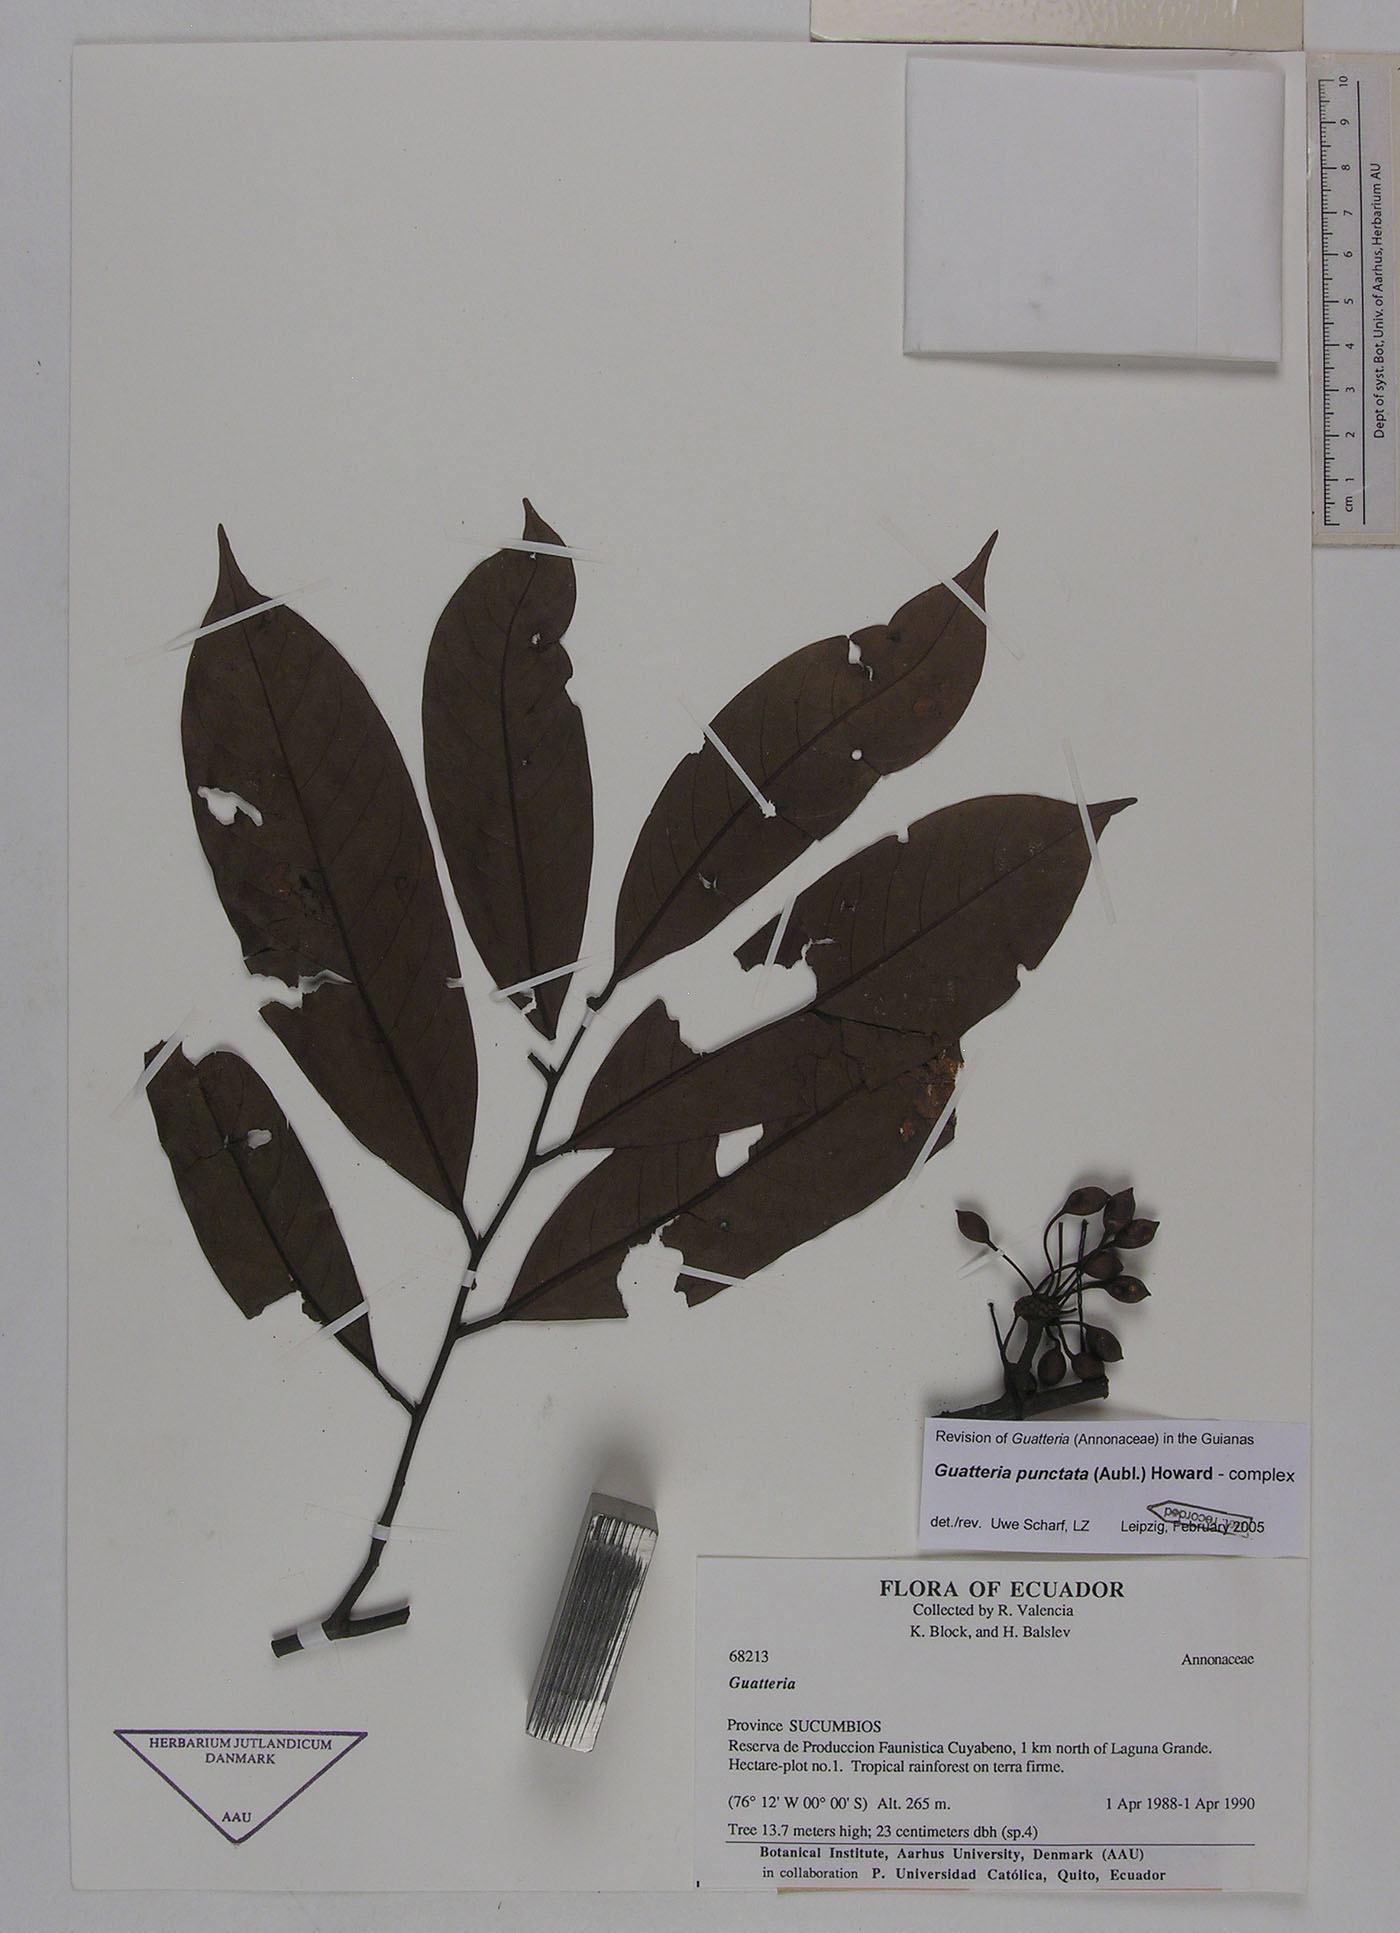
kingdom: Plantae
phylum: Tracheophyta
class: Magnoliopsida
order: Magnoliales
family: Annonaceae
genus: Guatteria
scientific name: Guatteria punctata
